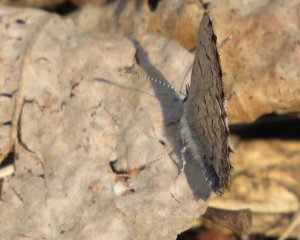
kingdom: Animalia
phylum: Arthropoda
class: Insecta
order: Lepidoptera
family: Lycaenidae
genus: Celastrina
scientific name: Celastrina lucia
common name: Northern Spring Azure
